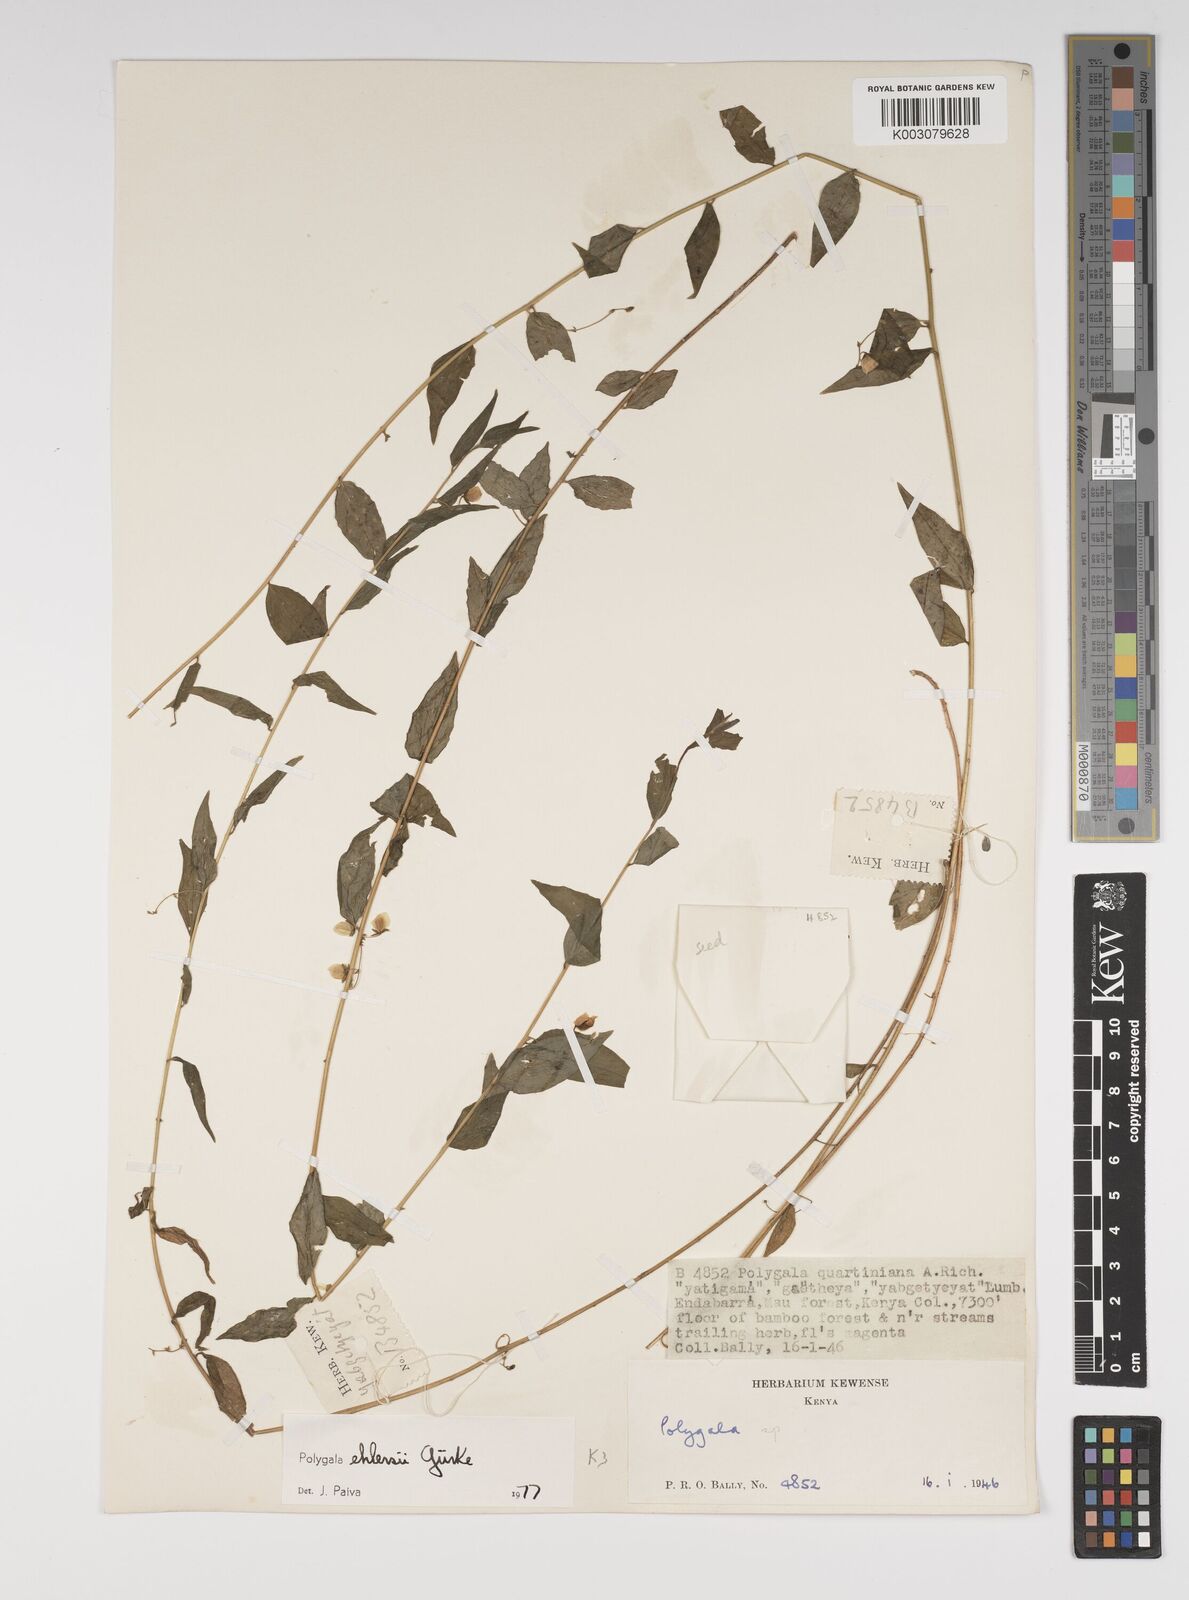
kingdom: Plantae
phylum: Tracheophyta
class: Magnoliopsida
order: Fabales
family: Polygalaceae
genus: Polygala
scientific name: Polygala ehlersii
